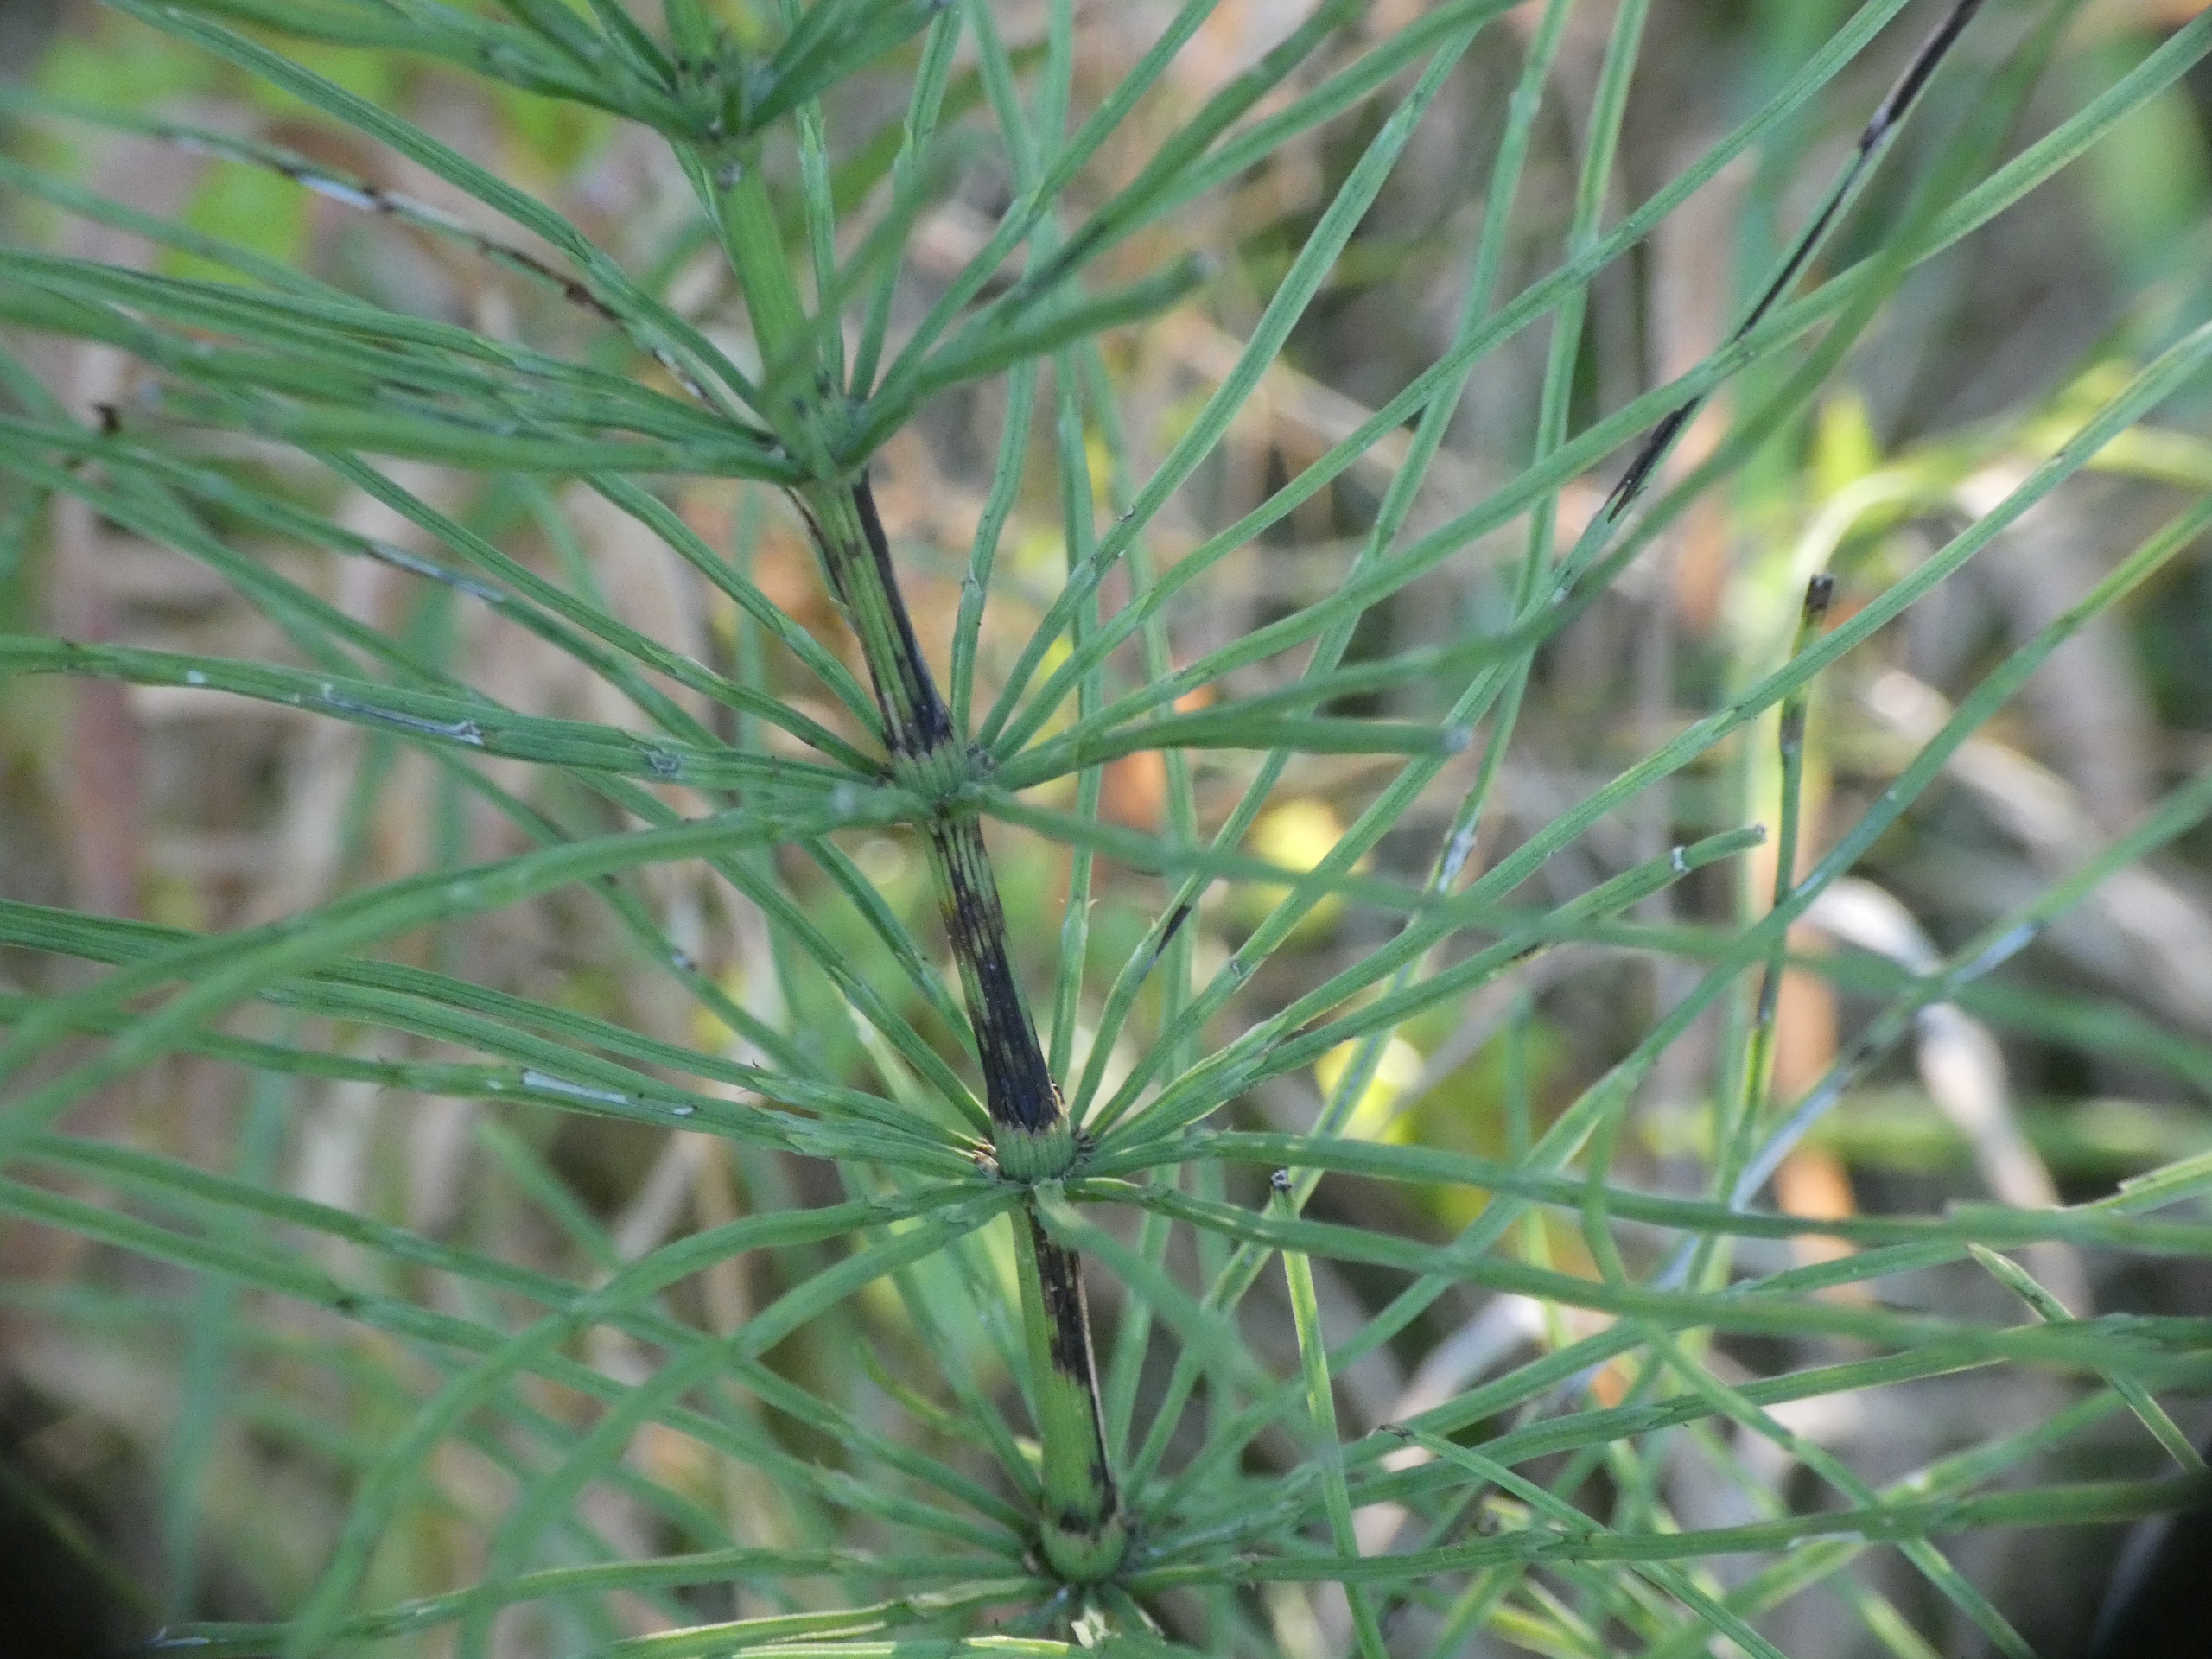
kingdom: Plantae
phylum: Tracheophyta
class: Polypodiopsida
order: Equisetales
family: Equisetaceae
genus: Equisetum
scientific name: Equisetum arvense
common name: Ager-padderok
